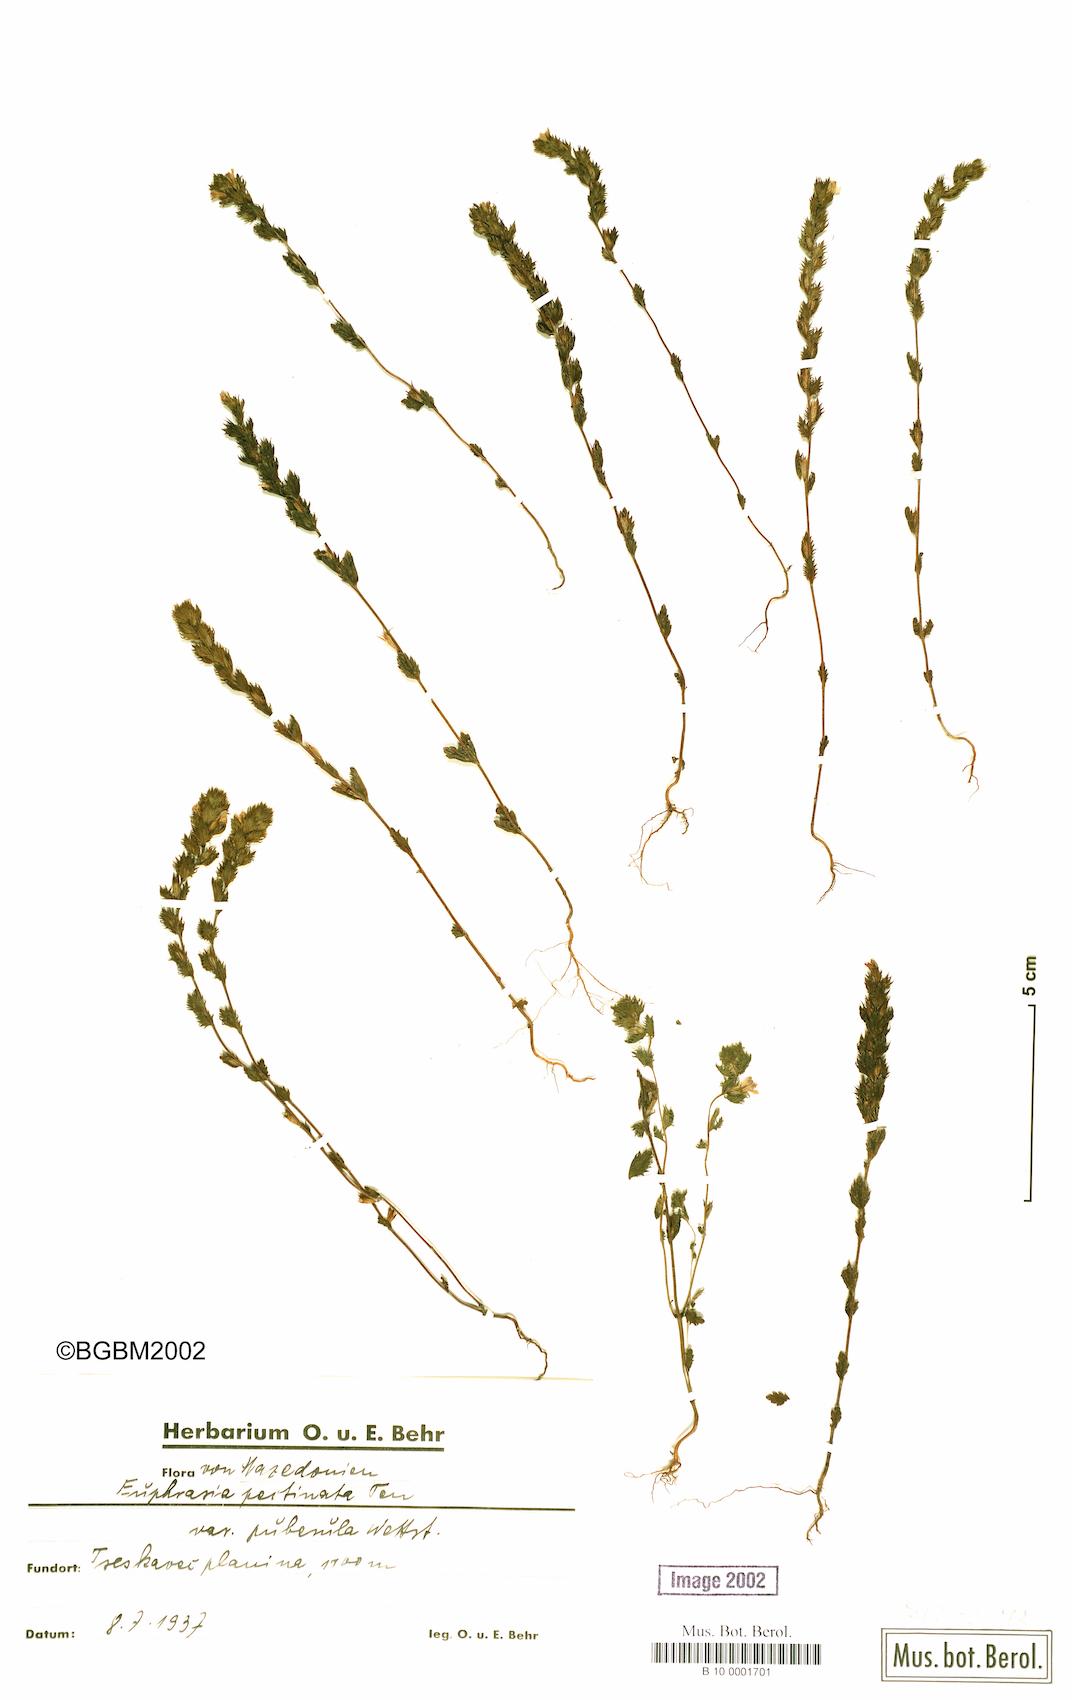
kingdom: Plantae
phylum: Tracheophyta
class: Magnoliopsida
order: Lamiales
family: Orobanchaceae
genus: Euphrasia
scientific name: Euphrasia pectinata
